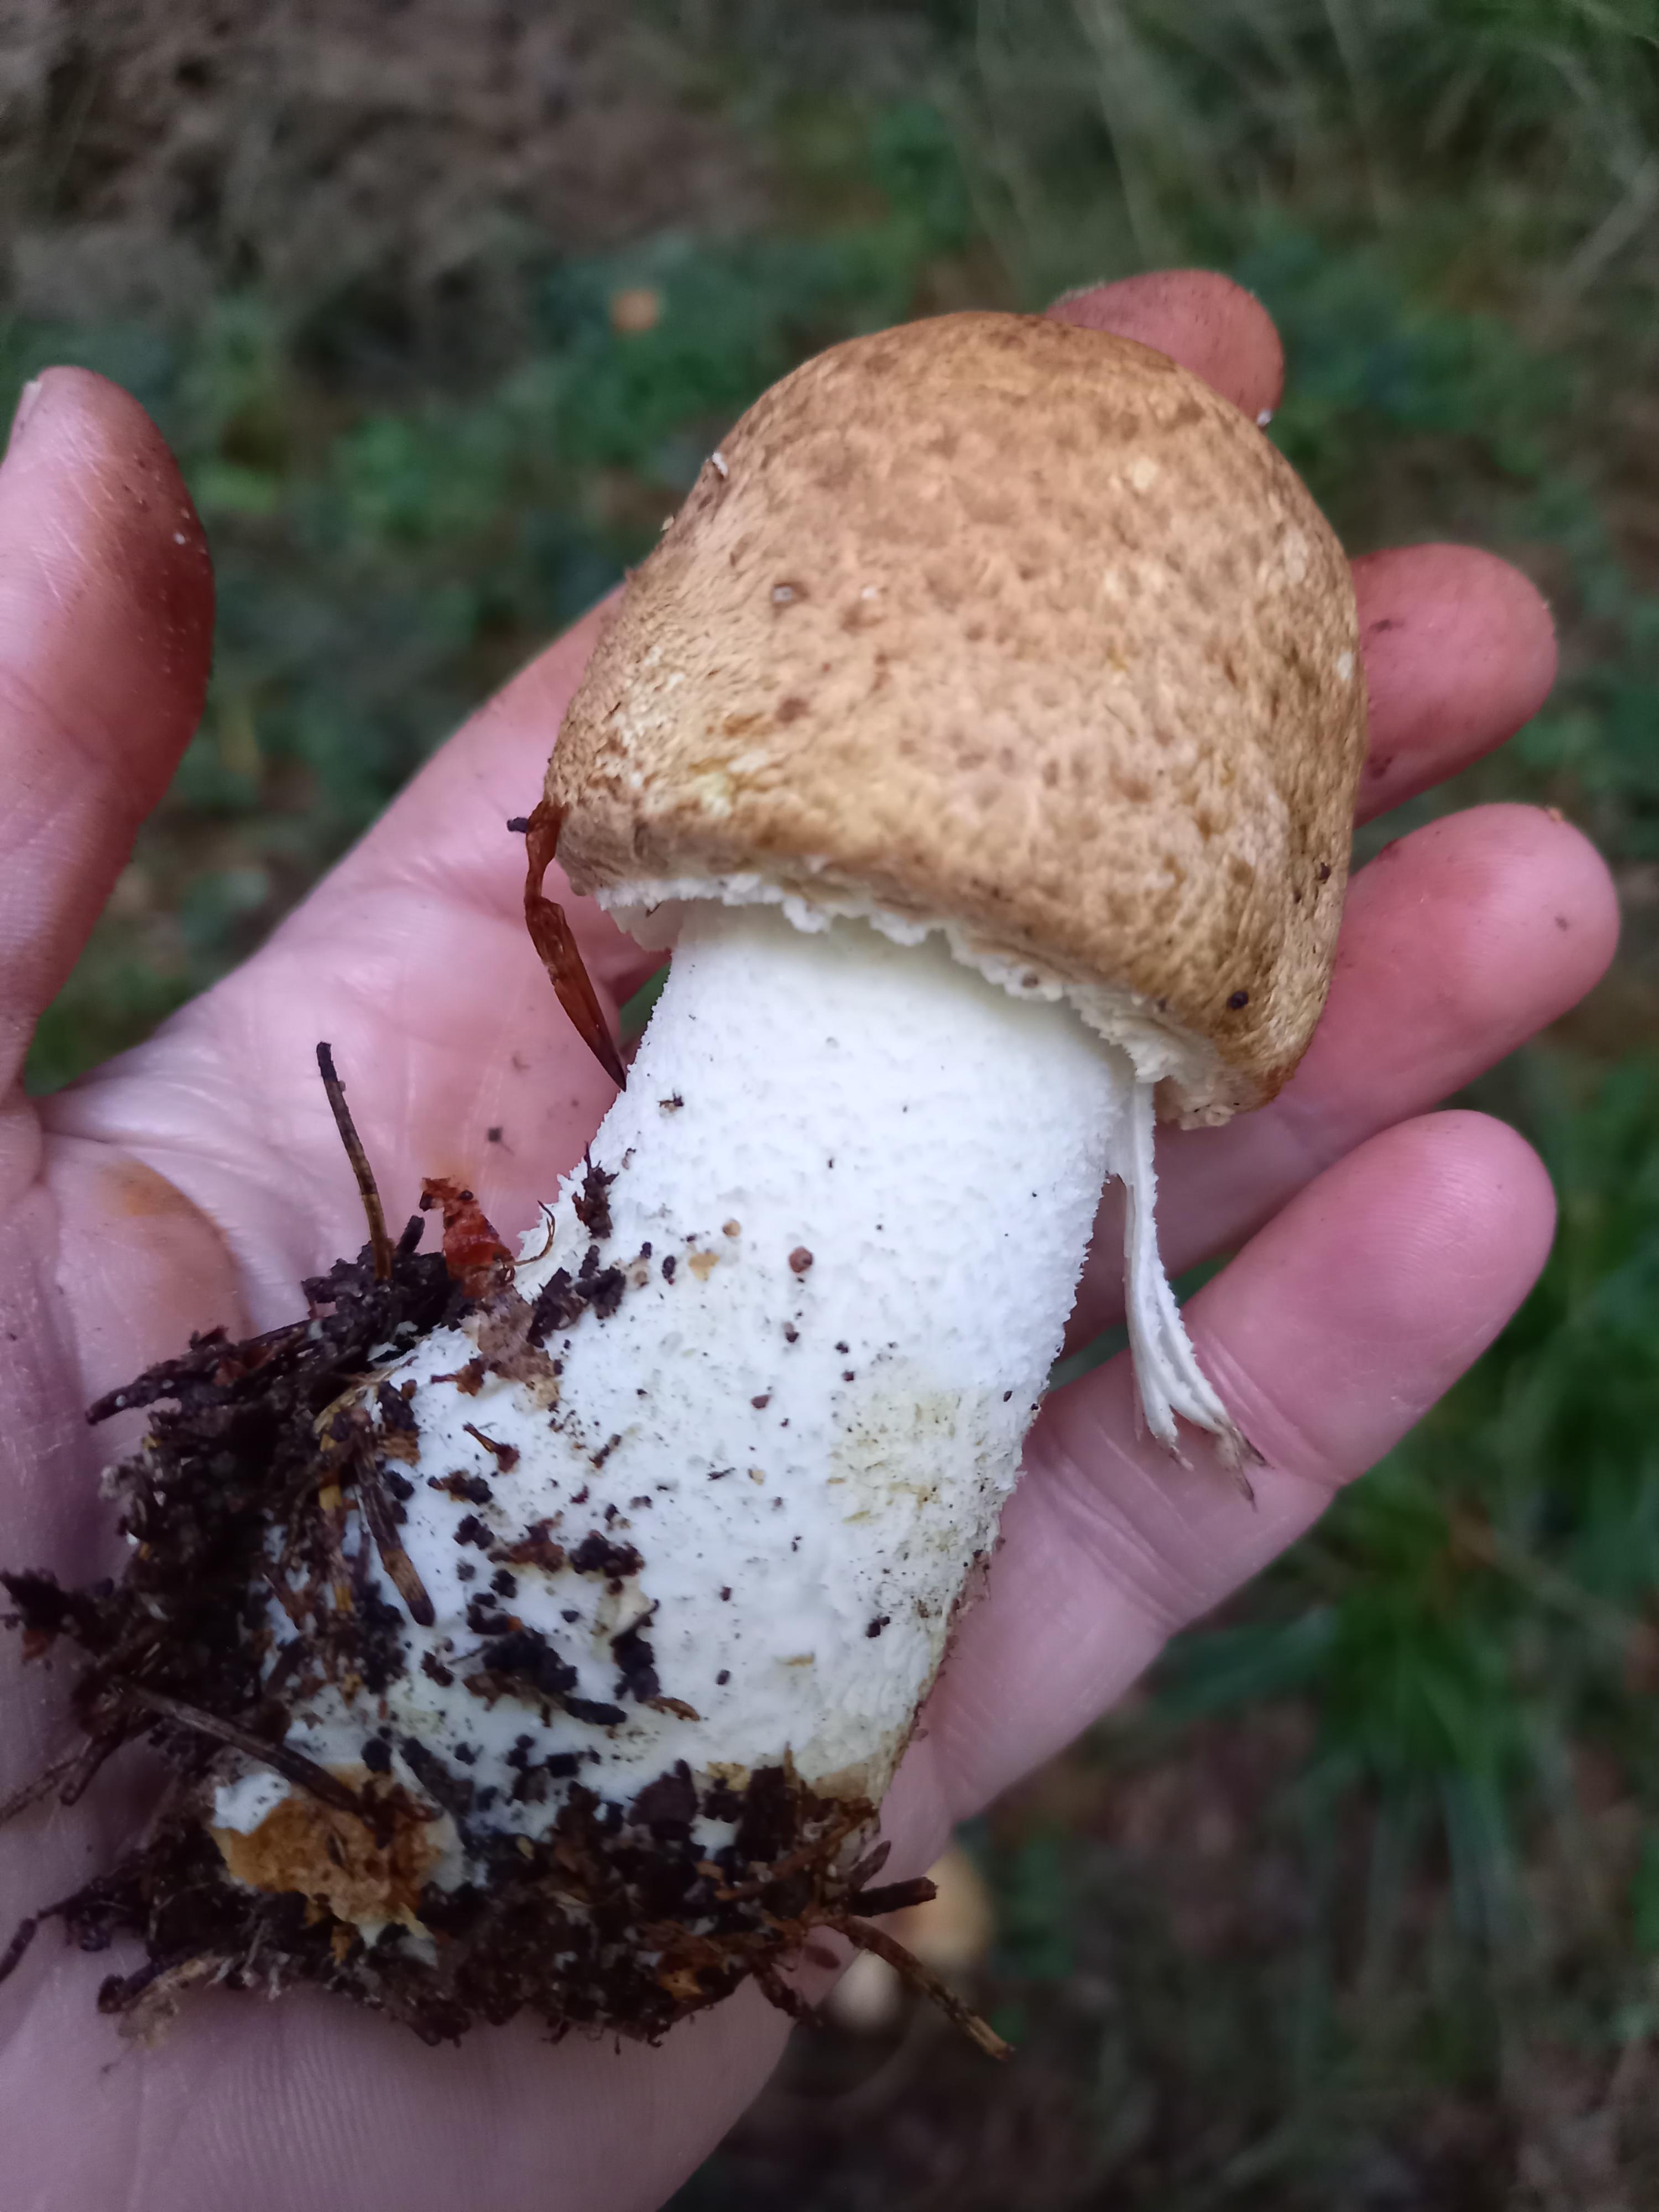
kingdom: Fungi
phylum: Basidiomycota
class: Agaricomycetes
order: Agaricales
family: Agaricaceae
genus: Agaricus
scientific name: Agaricus augustus
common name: prægtig champignon
